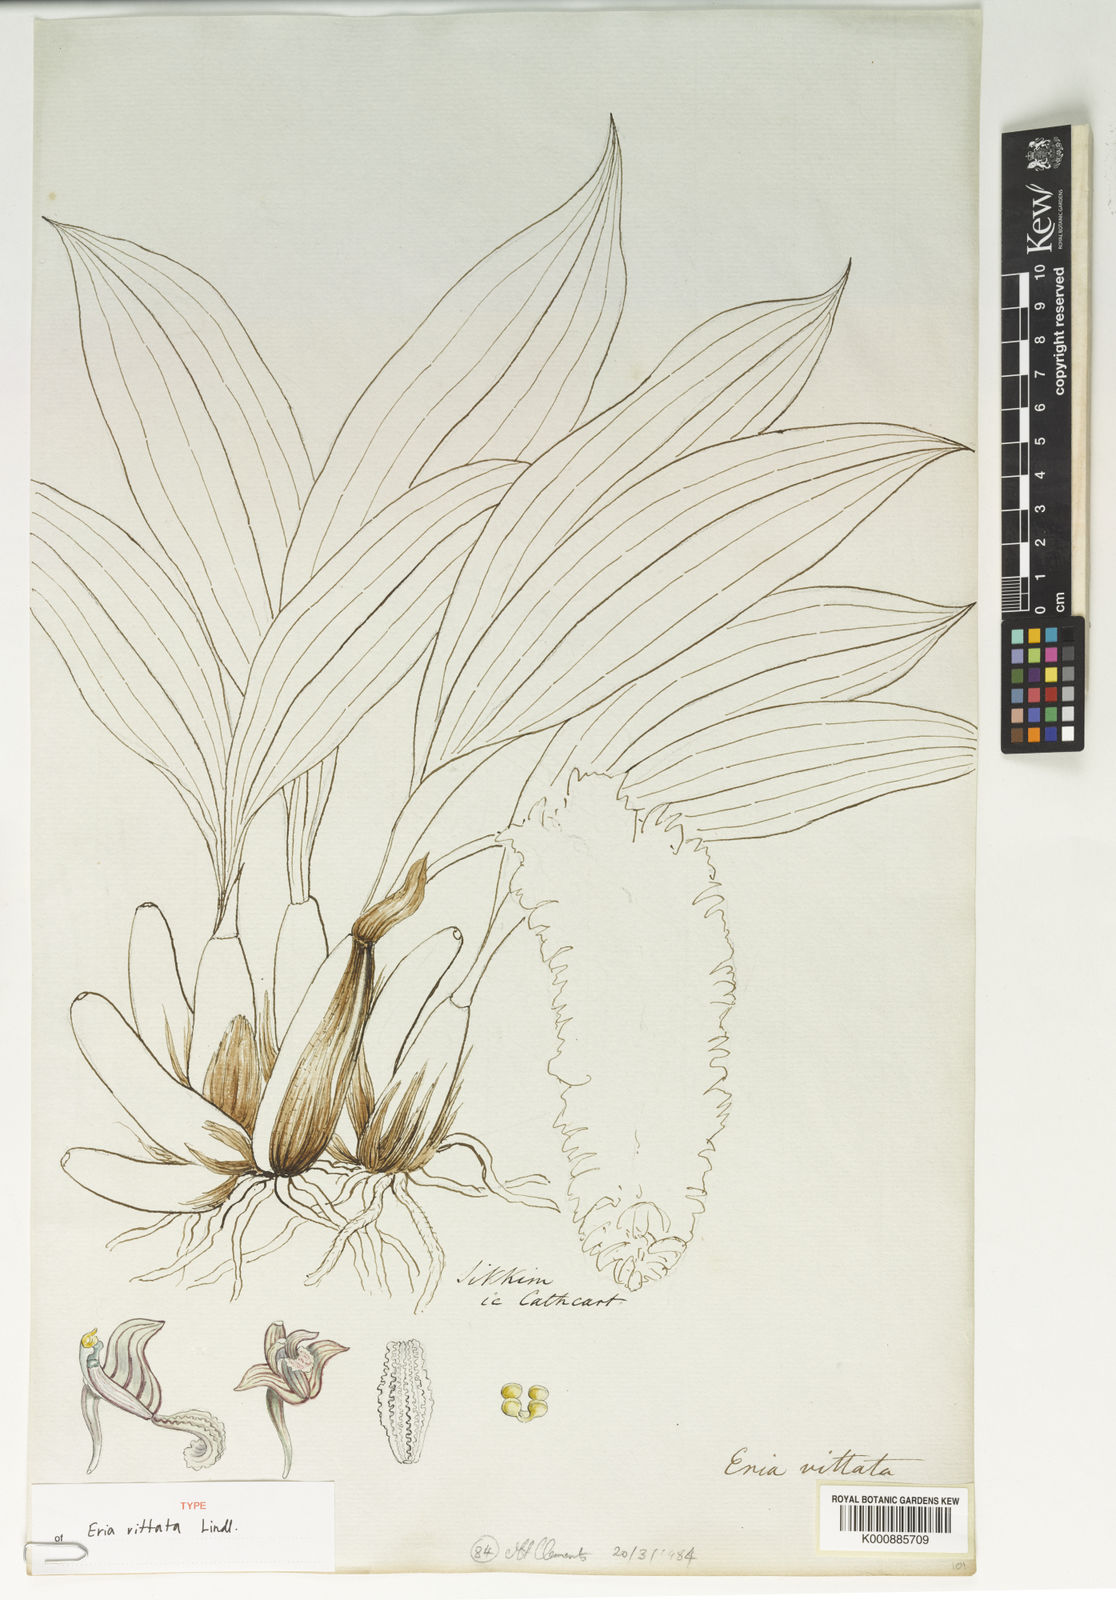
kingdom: Plantae
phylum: Tracheophyta
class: Liliopsida
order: Asparagales
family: Orchidaceae
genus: Eria
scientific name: Eria vittata
